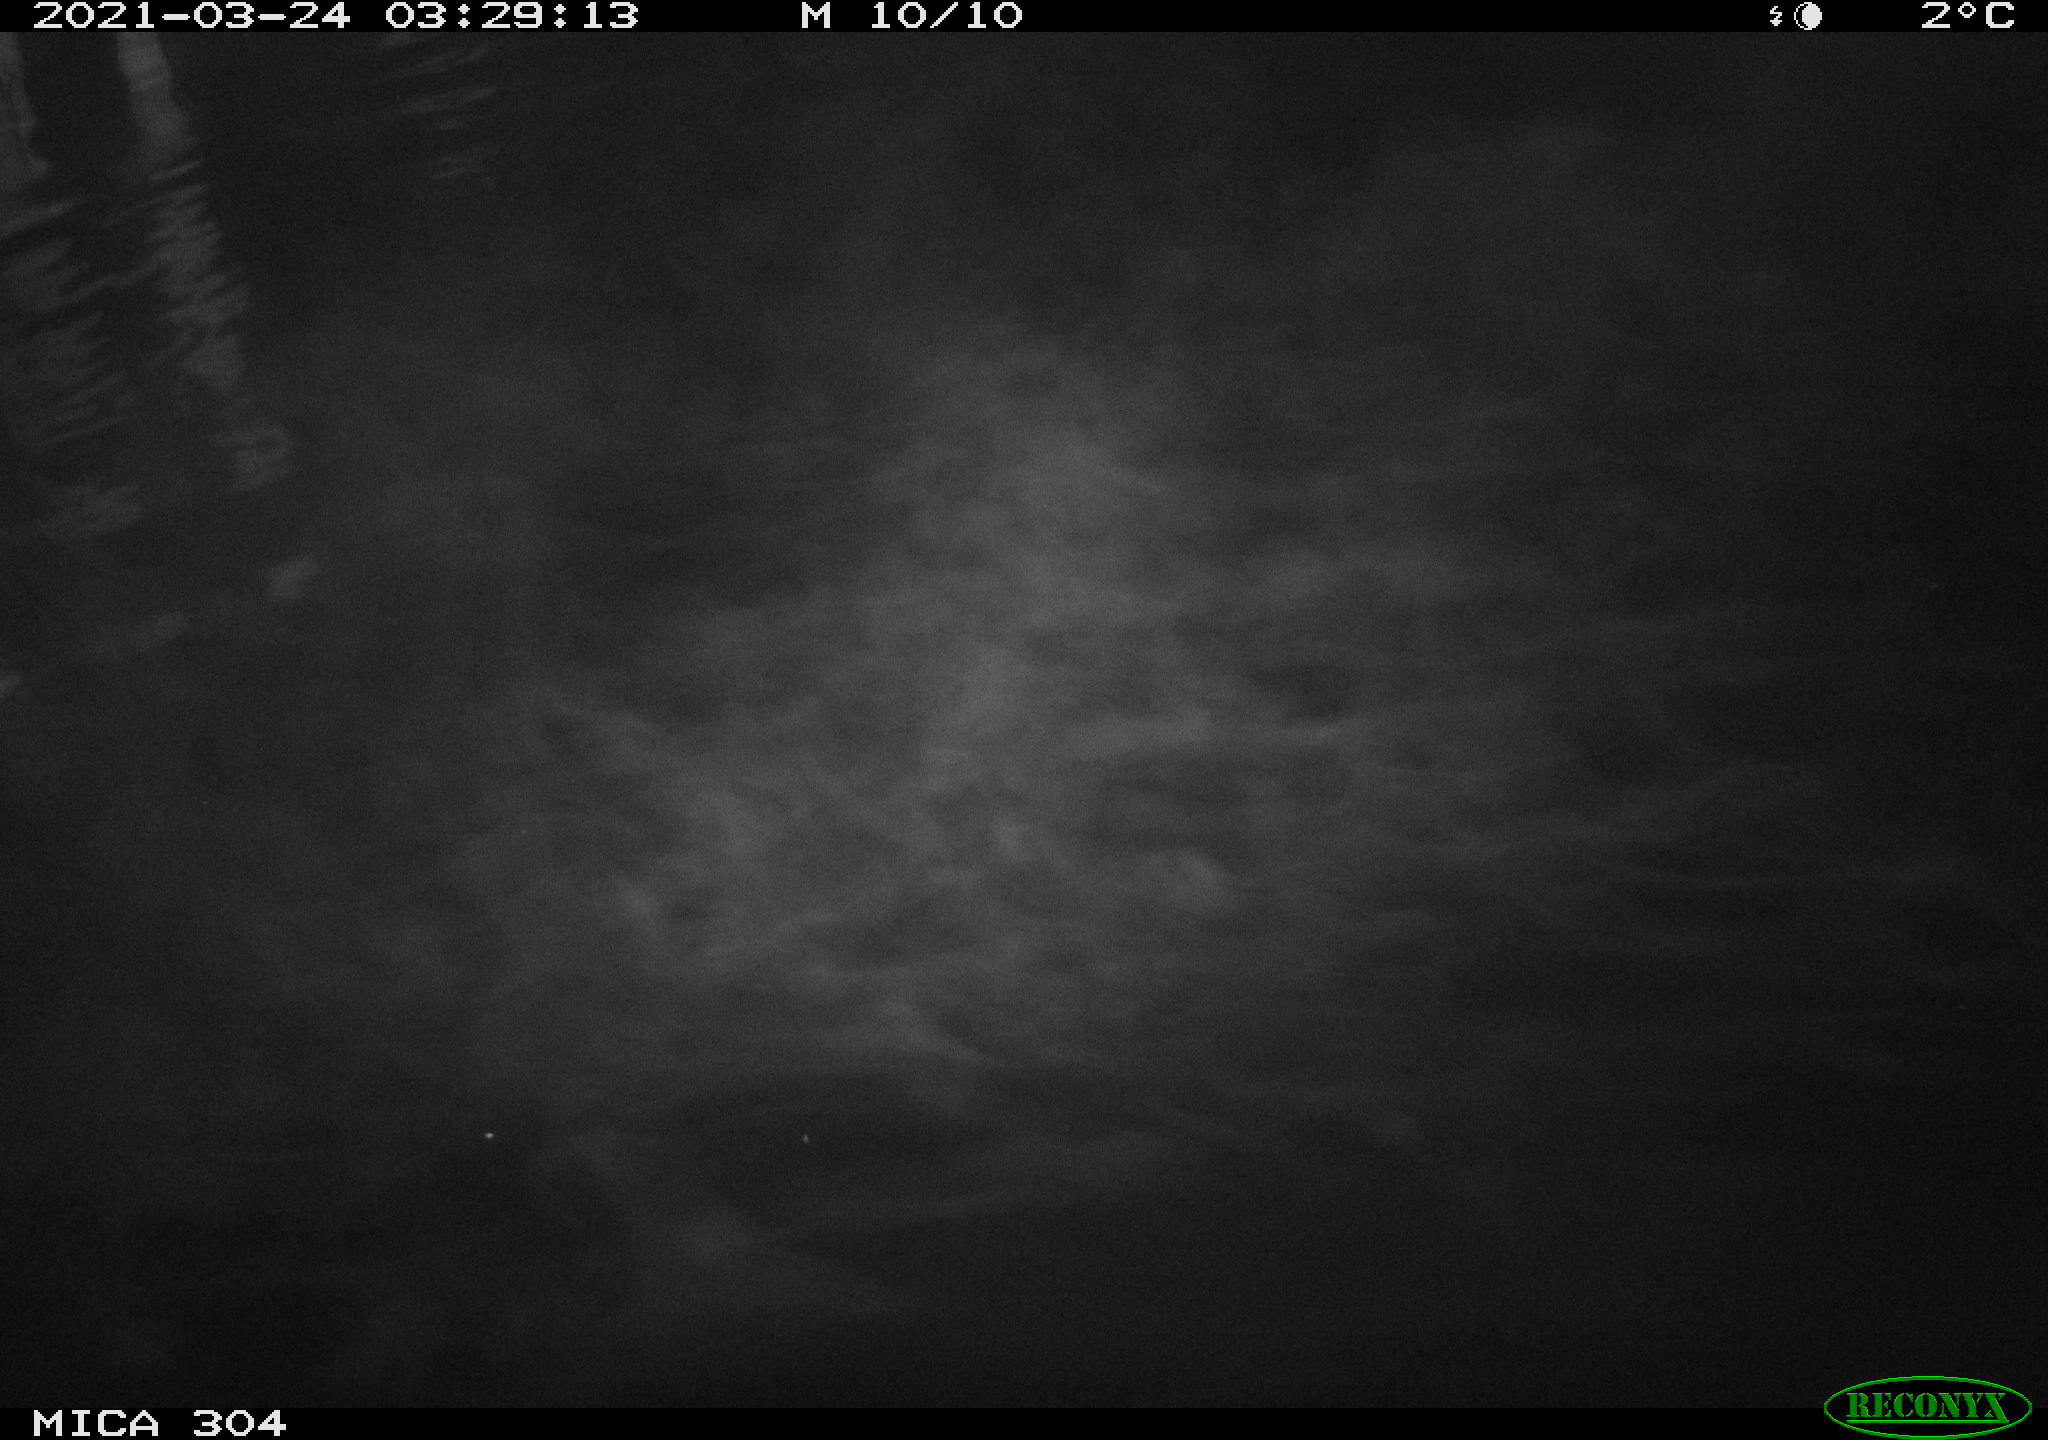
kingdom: Animalia
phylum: Chordata
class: Aves
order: Anseriformes
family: Anatidae
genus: Anas
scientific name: Anas platyrhynchos
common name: Mallard
